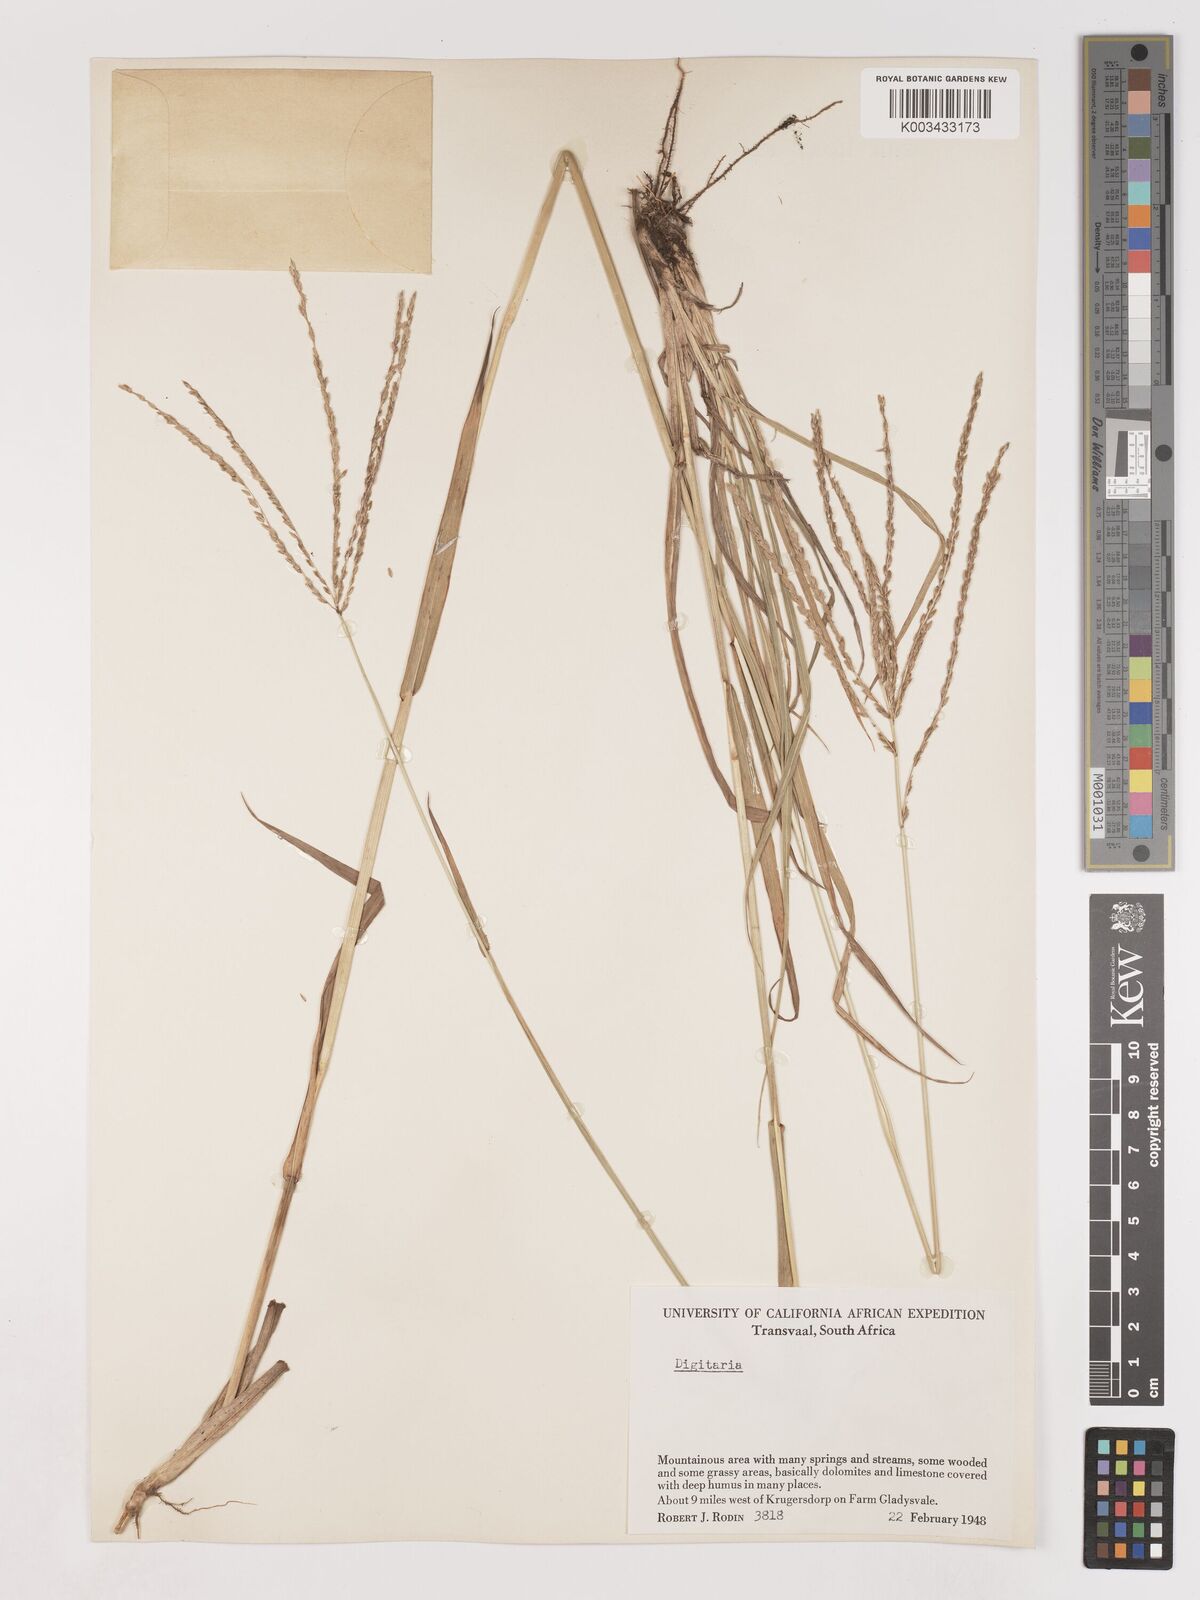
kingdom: Plantae
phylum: Tracheophyta
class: Liliopsida
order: Poales
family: Poaceae
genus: Digitaria
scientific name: Digitaria milanjiana
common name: Madagascar crabgrass
